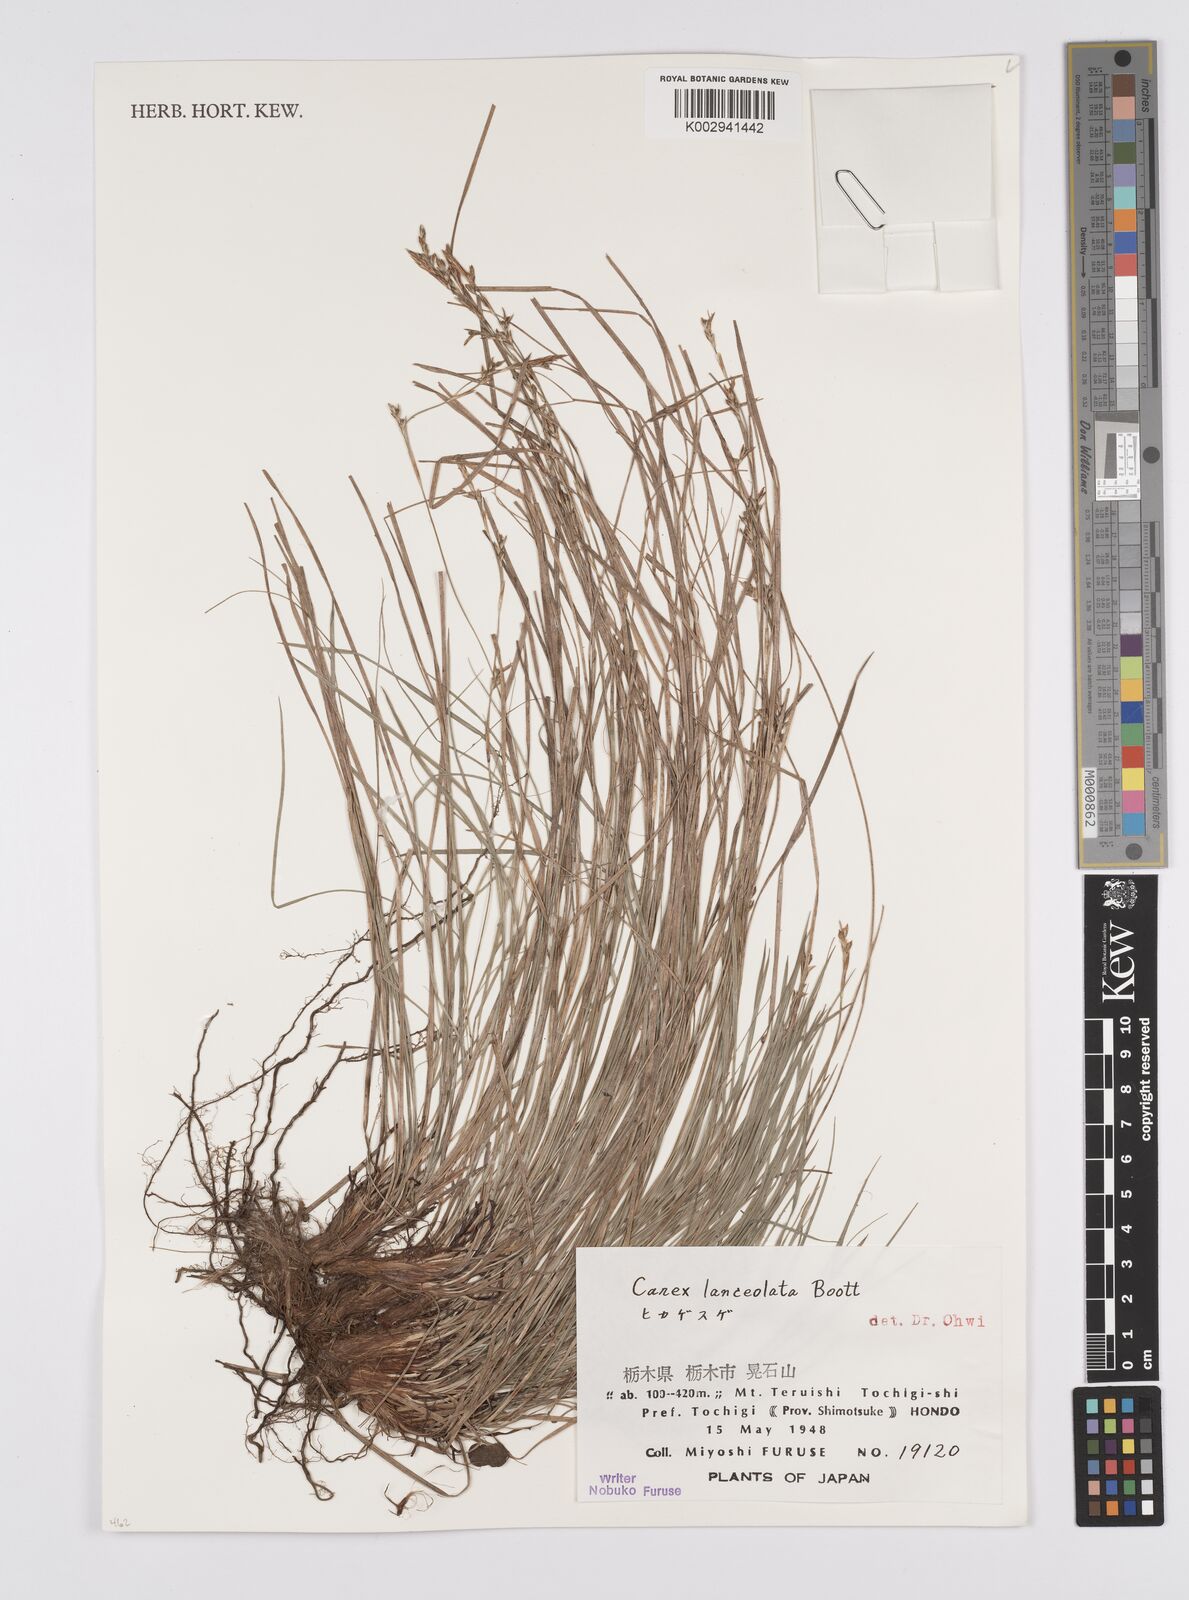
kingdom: Plantae
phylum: Tracheophyta
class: Liliopsida
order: Poales
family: Cyperaceae
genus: Carex
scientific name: Carex lanceolata
